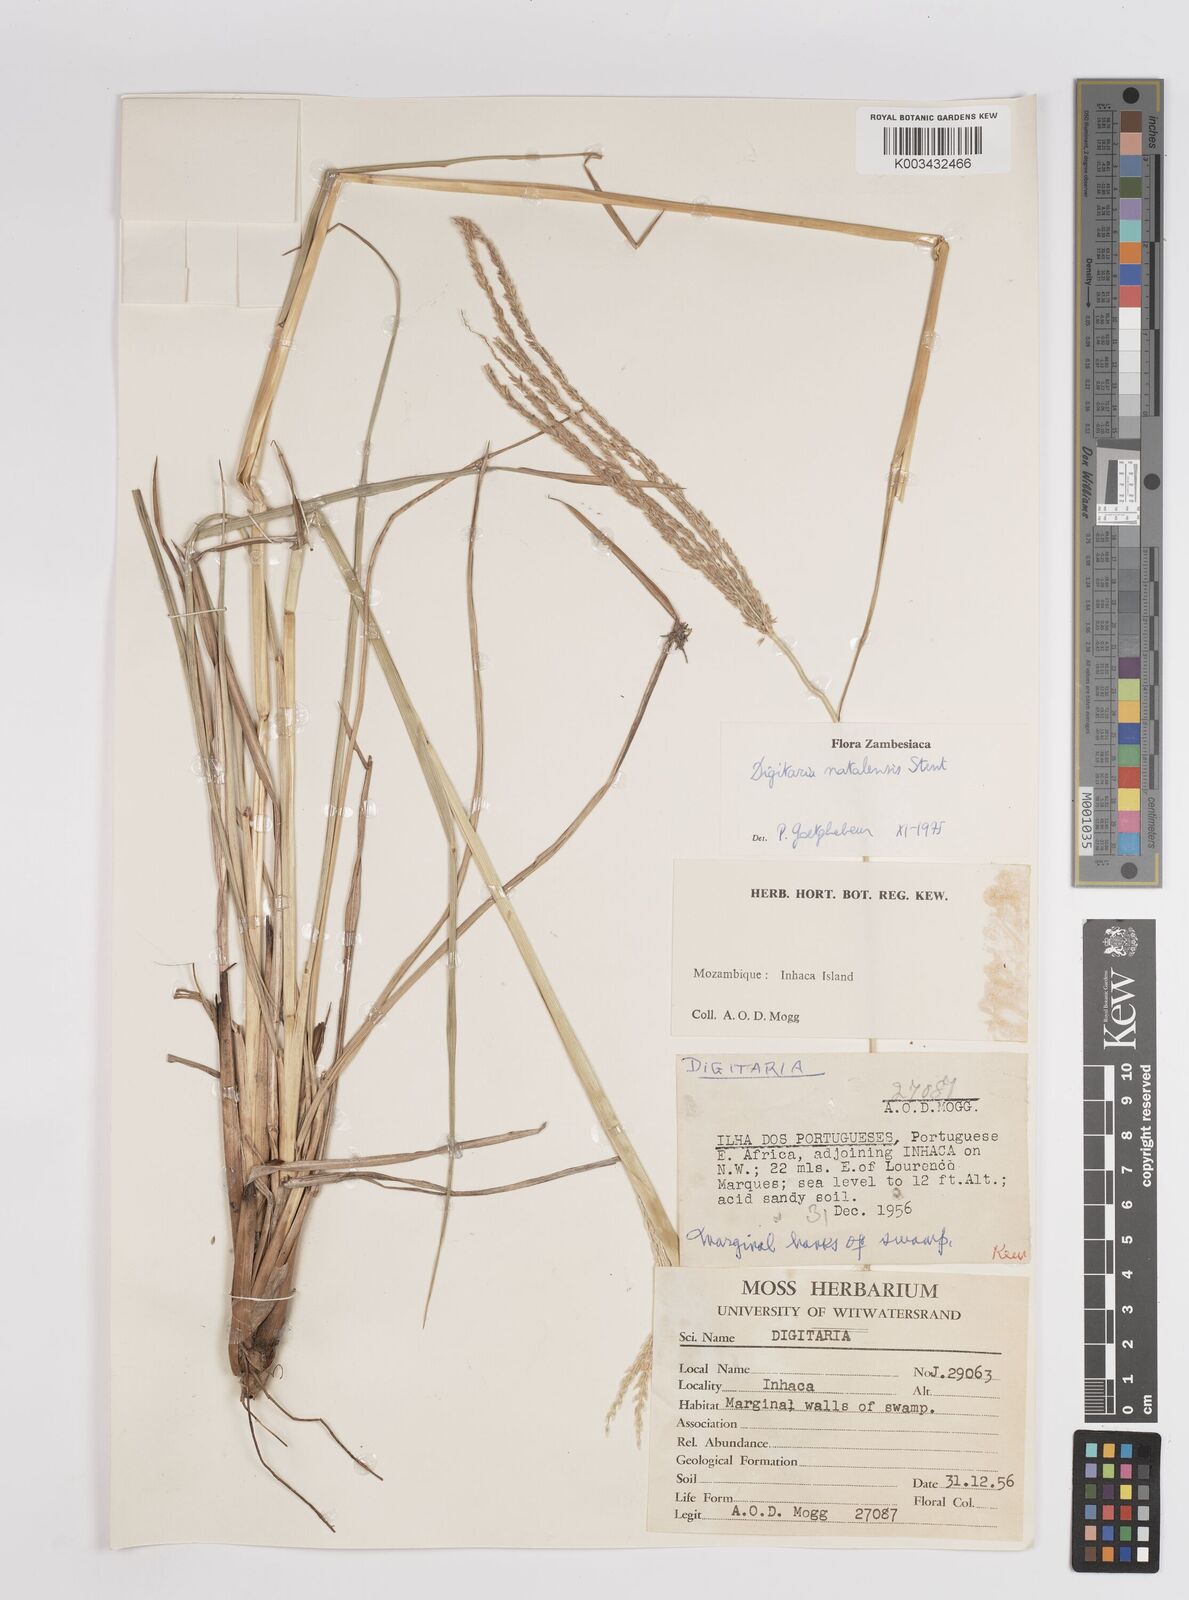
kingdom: Plantae
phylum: Tracheophyta
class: Liliopsida
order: Poales
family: Poaceae
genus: Digitaria
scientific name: Digitaria natalensis
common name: Coast finger grass
